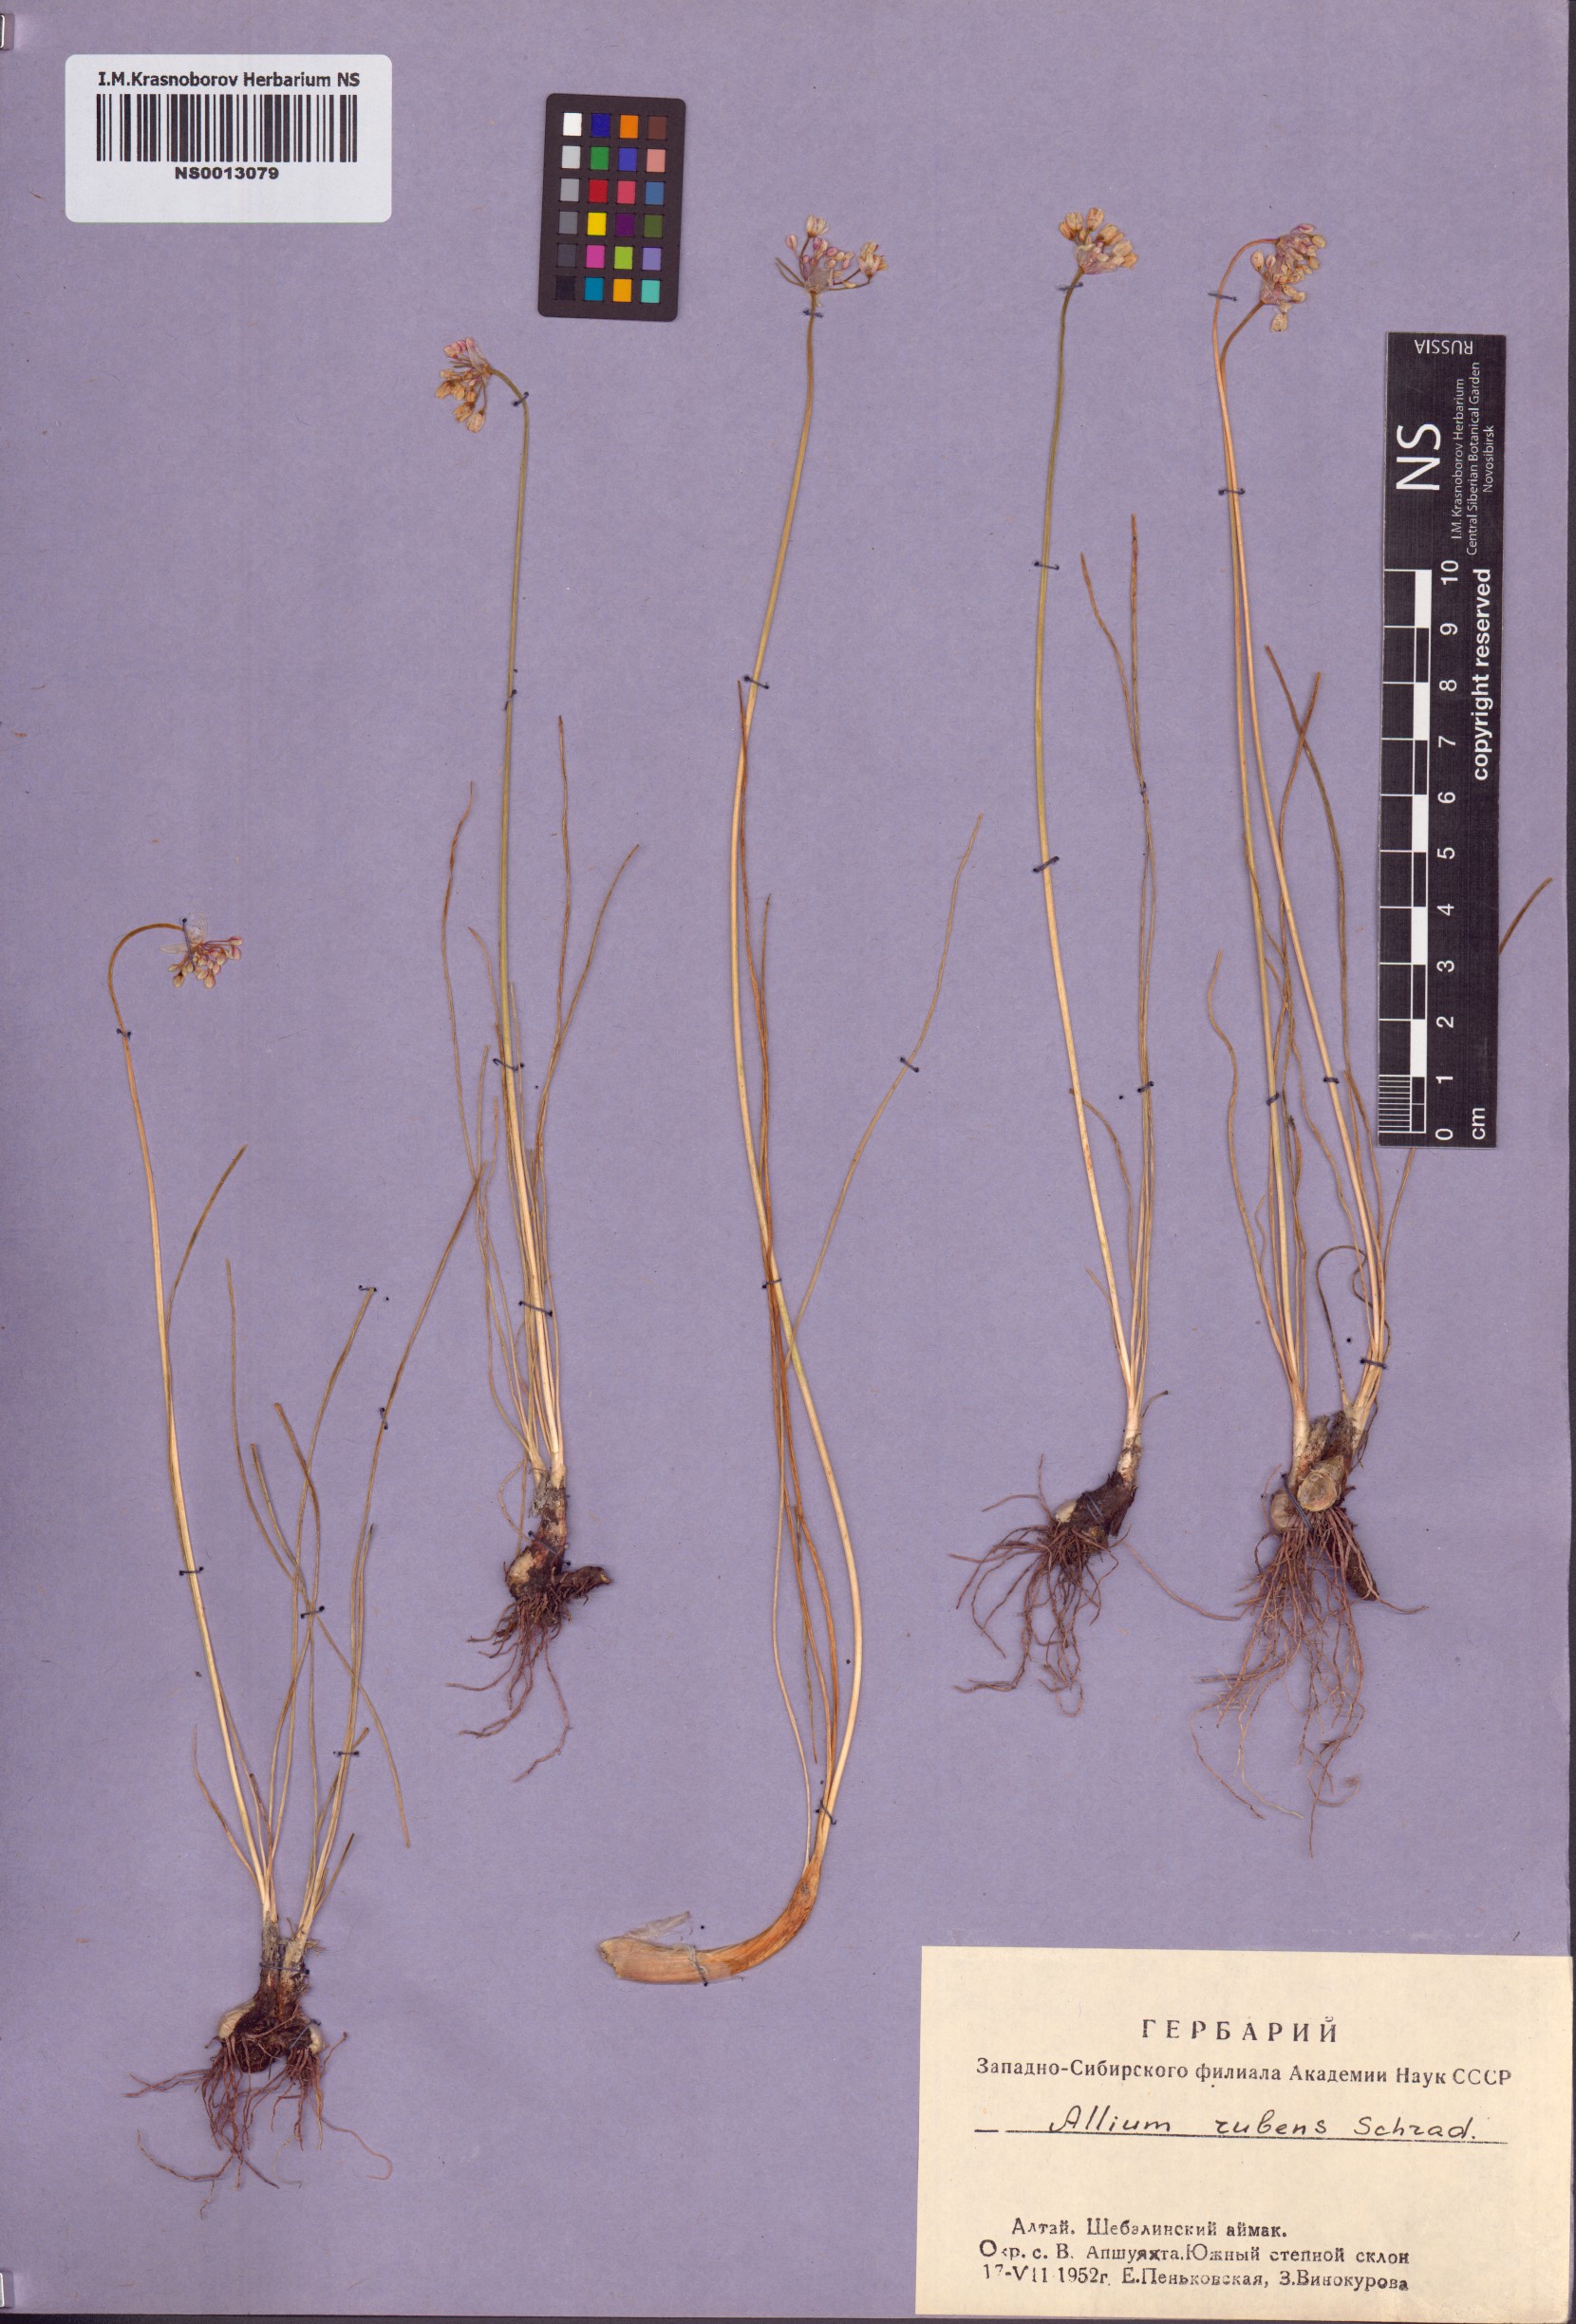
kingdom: Plantae
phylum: Tracheophyta
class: Liliopsida
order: Asparagales
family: Amaryllidaceae
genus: Allium
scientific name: Allium rubens
